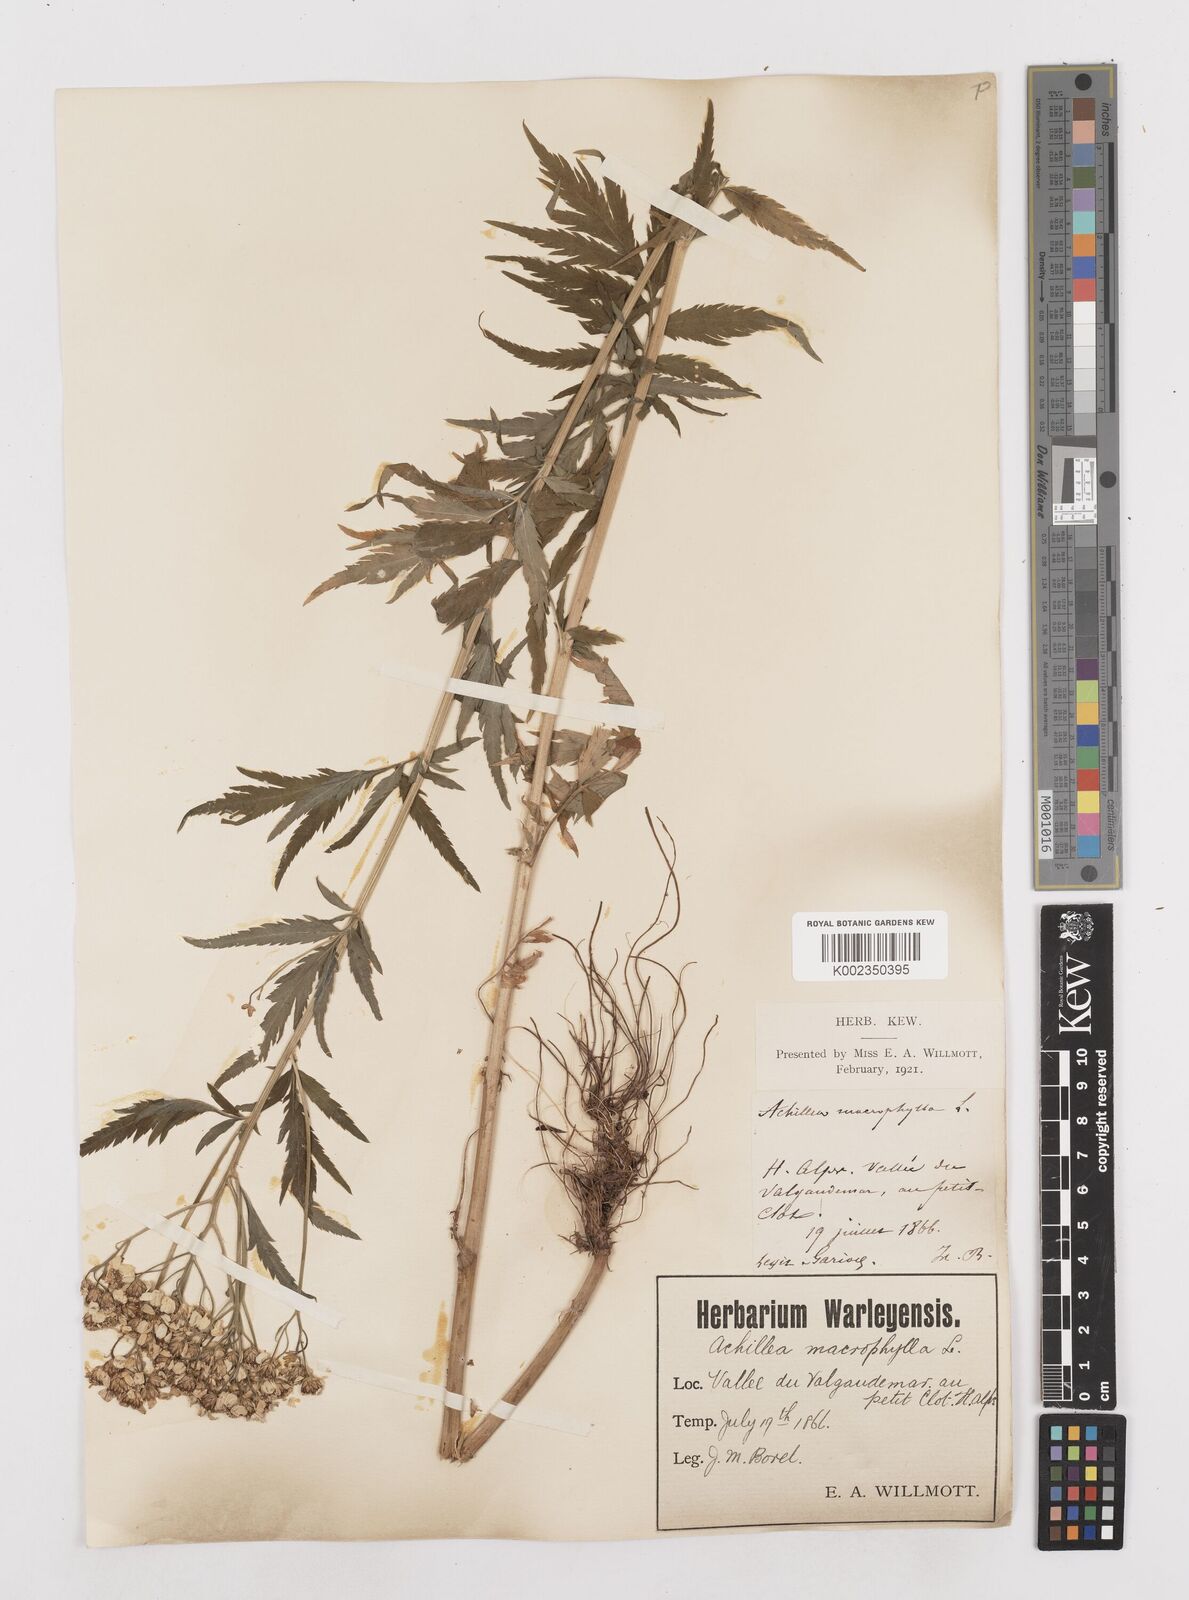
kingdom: Plantae
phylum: Tracheophyta
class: Magnoliopsida
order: Asterales
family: Asteraceae
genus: Achillea
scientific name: Achillea macrophylla
